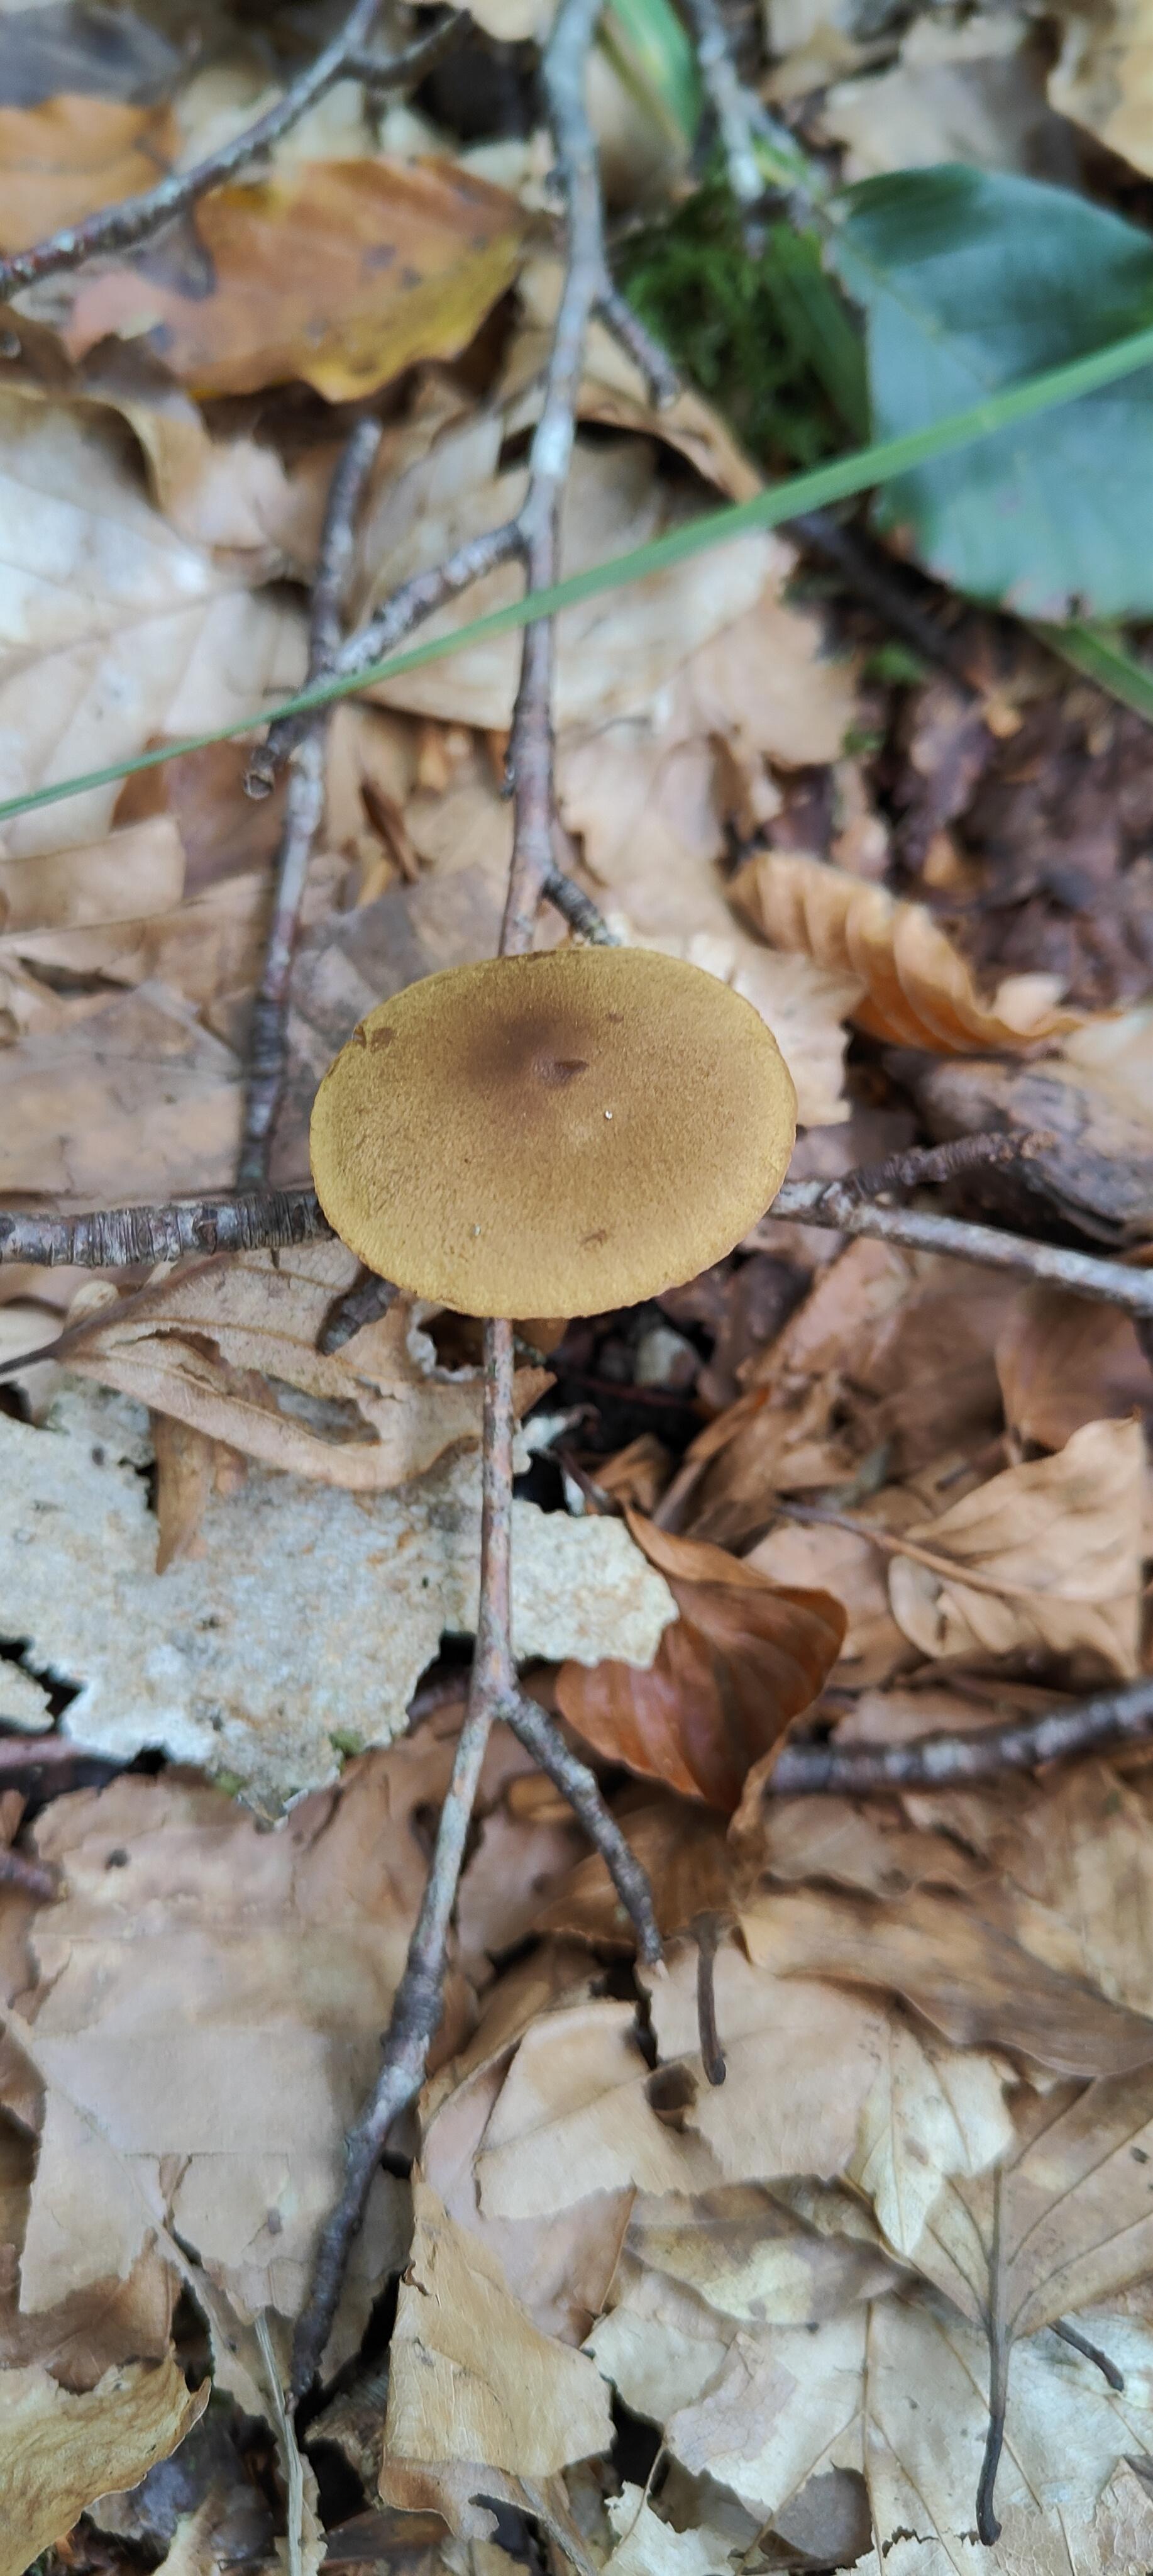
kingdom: Fungi
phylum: Basidiomycota
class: Agaricomycetes
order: Agaricales
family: Cortinariaceae
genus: Cortinarius
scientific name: Cortinarius
